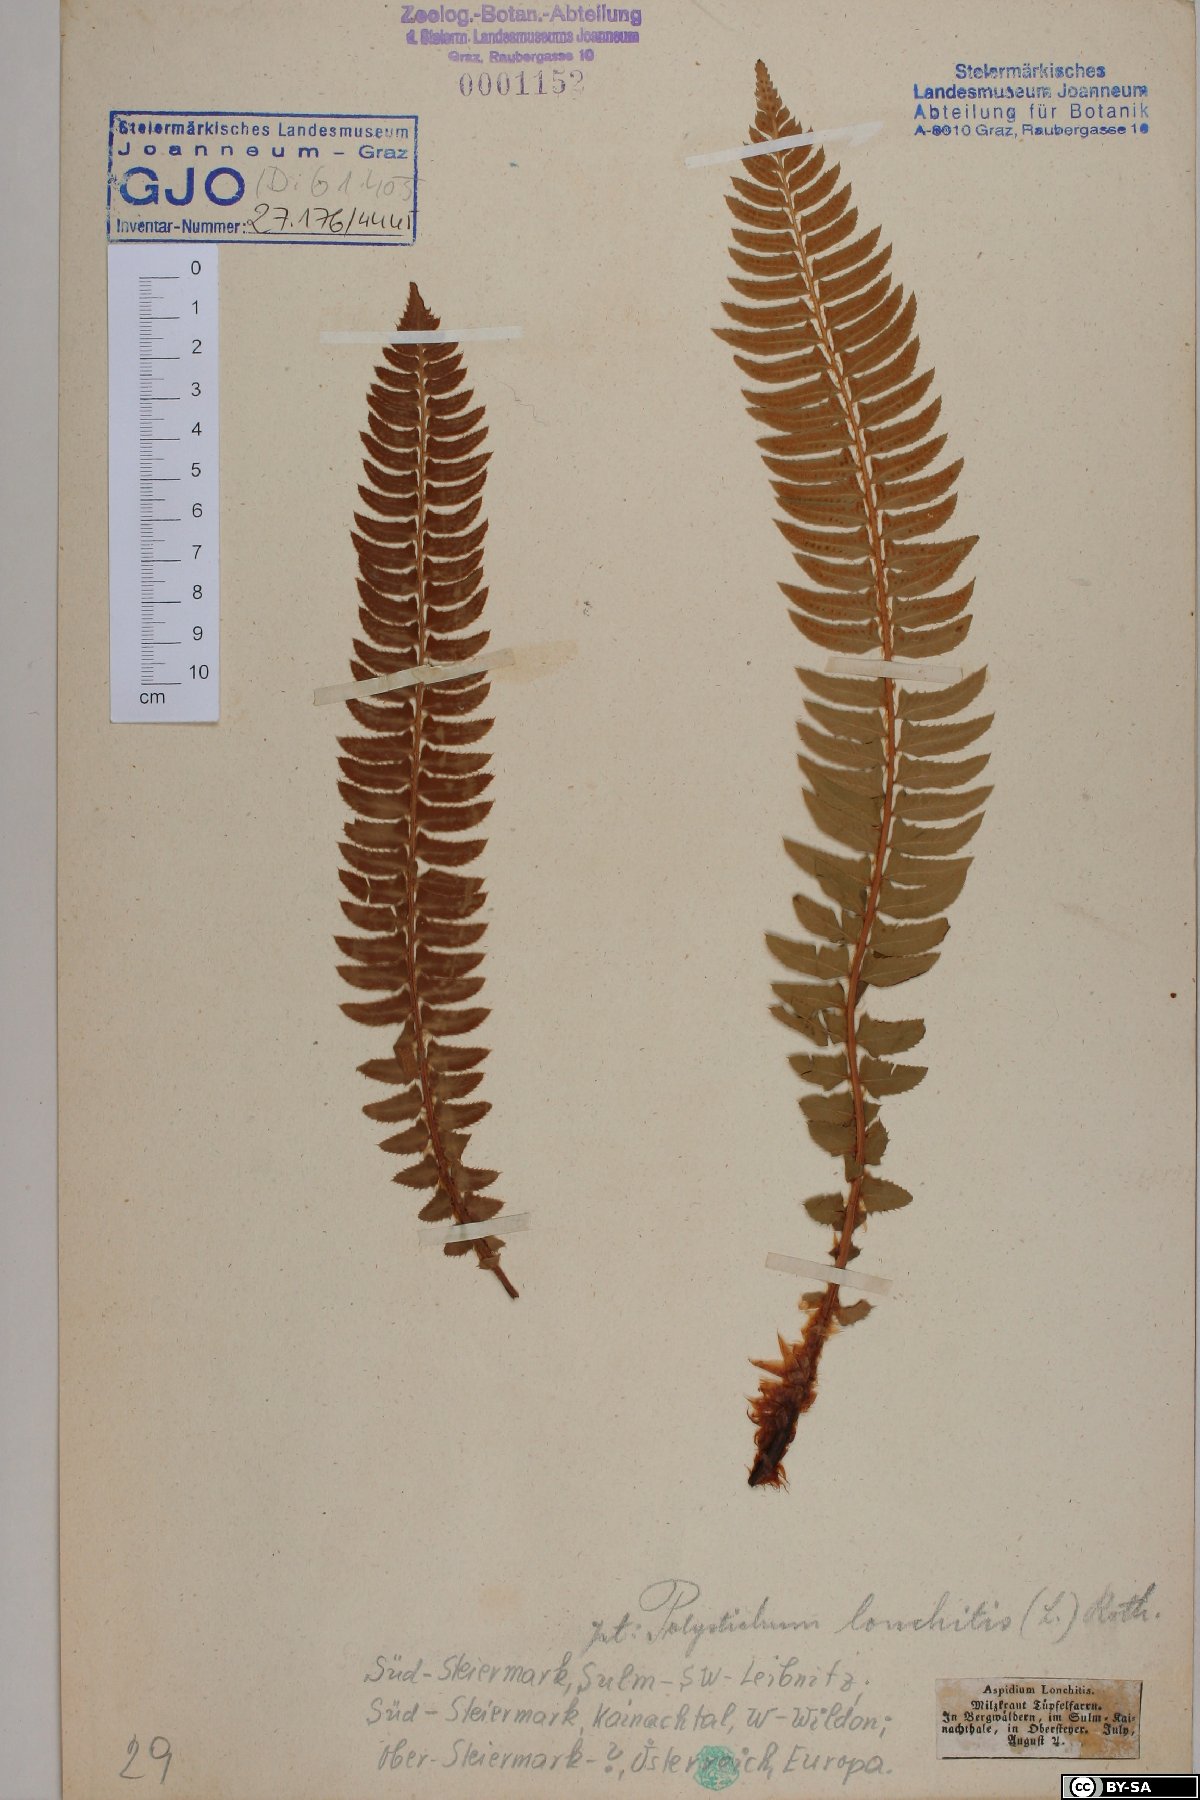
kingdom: Plantae
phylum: Tracheophyta
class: Polypodiopsida
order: Polypodiales
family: Dryopteridaceae
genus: Polystichum
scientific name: Polystichum lonchitis
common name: Holly fern
